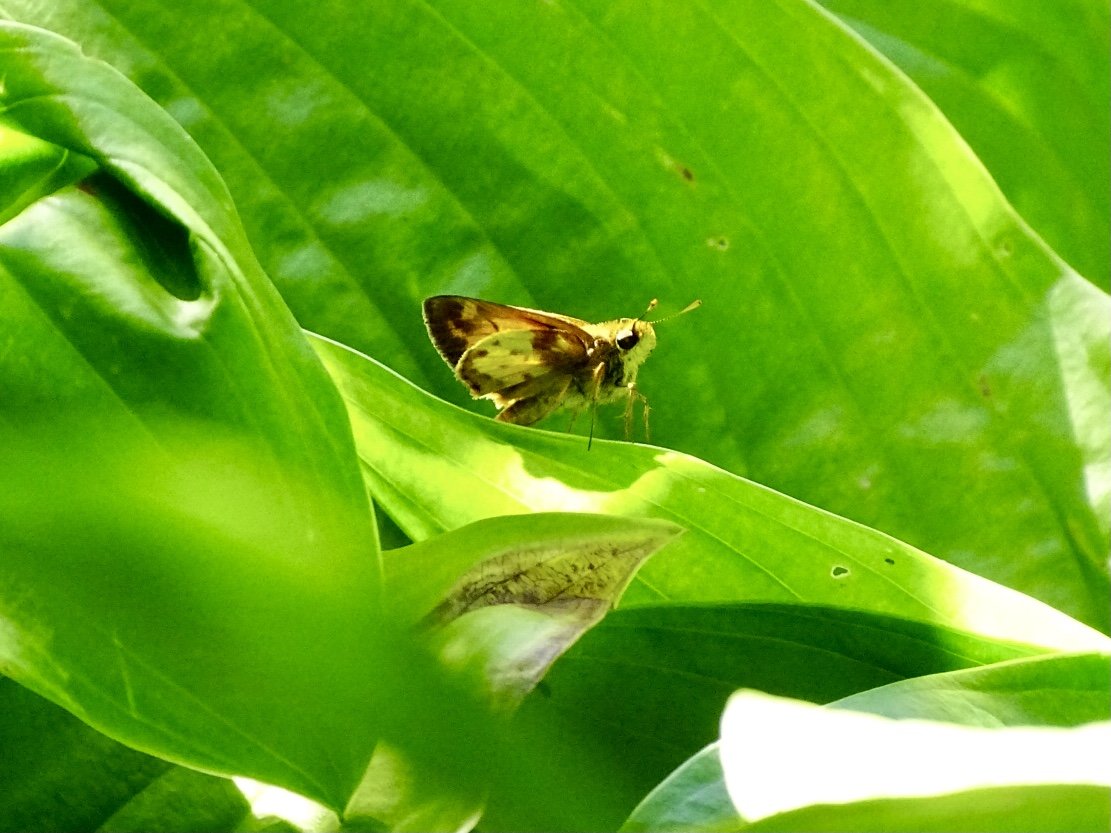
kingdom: Animalia
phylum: Arthropoda
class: Insecta
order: Lepidoptera
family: Hesperiidae
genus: Lon
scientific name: Lon zabulon
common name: Zabulon Skipper
